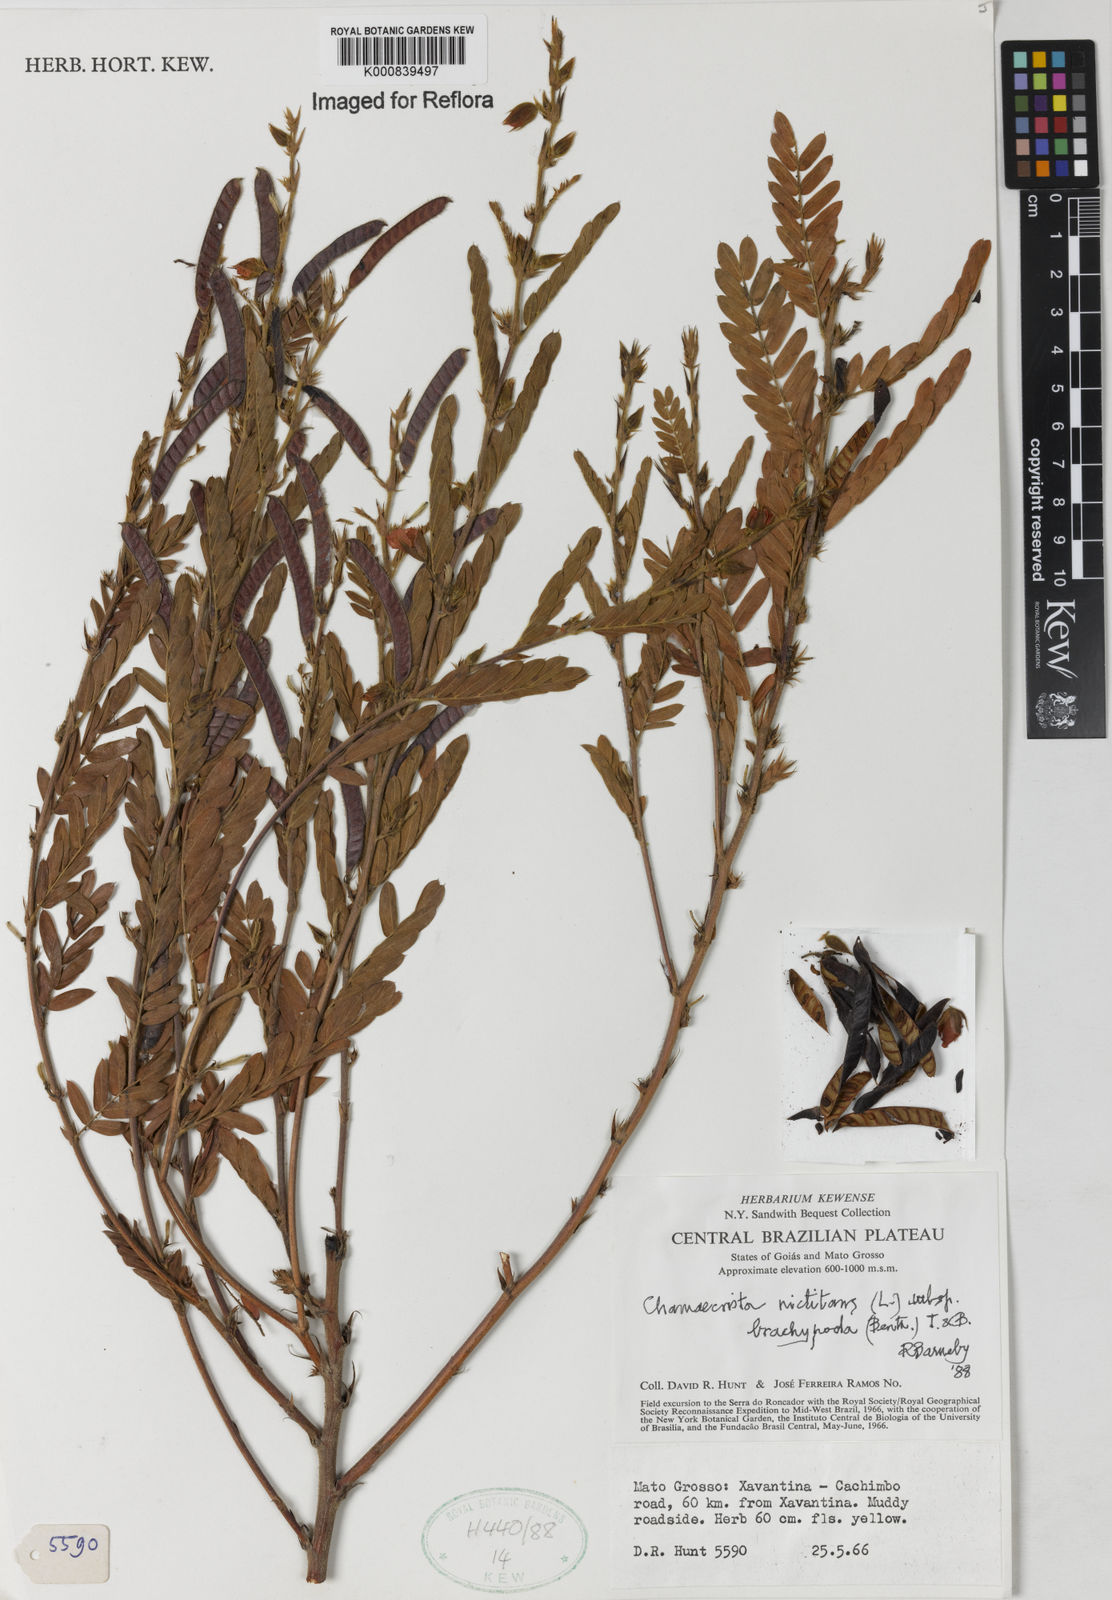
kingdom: Plantae
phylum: Tracheophyta
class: Magnoliopsida
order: Fabales
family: Fabaceae
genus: Chamaecrista
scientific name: Chamaecrista nictitans
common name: Sensitive cassia
